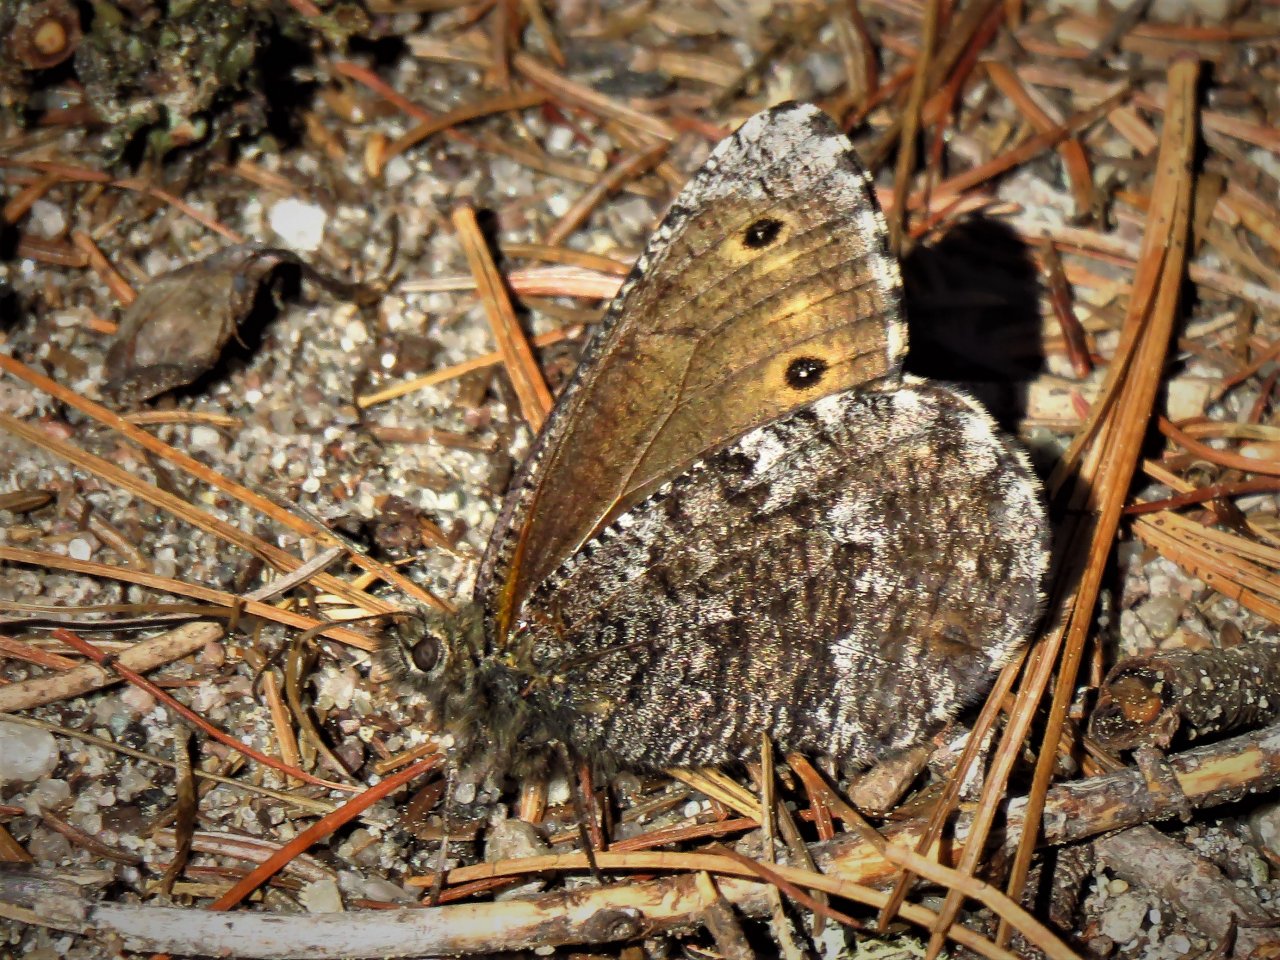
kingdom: Animalia
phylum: Arthropoda
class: Insecta
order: Lepidoptera
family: Nymphalidae
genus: Oeneis
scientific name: Oeneis jutta
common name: Jutta Arctic
